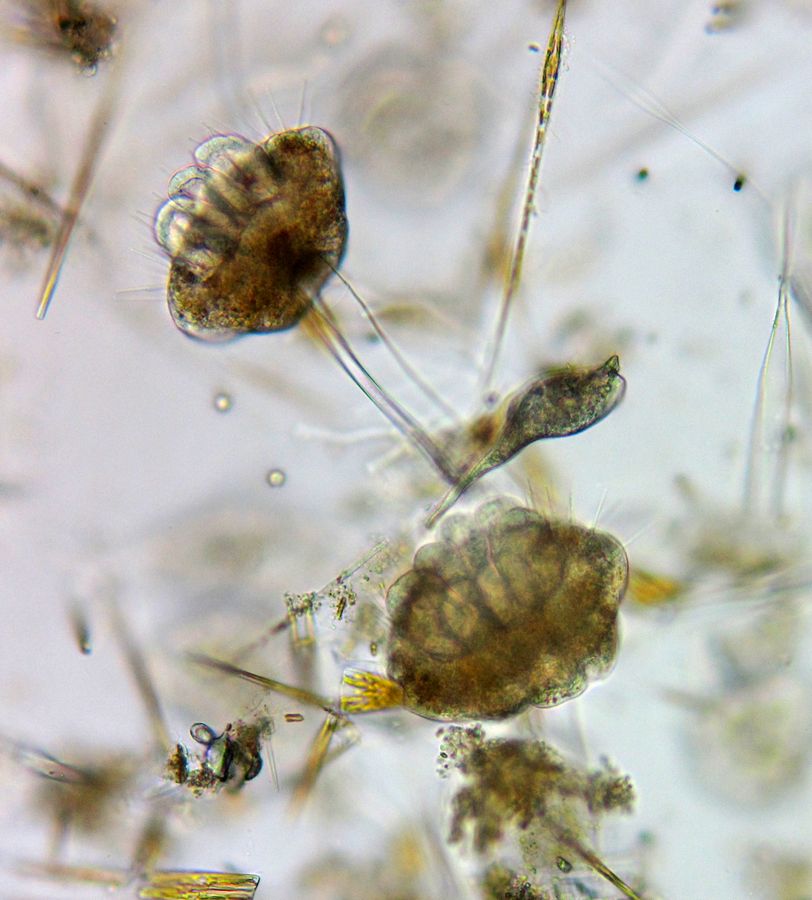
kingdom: Chromista
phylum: Ciliophora
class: Phyllopharyngea
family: Ephelotidae
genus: Ephelota
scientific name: Ephelota mammillata
